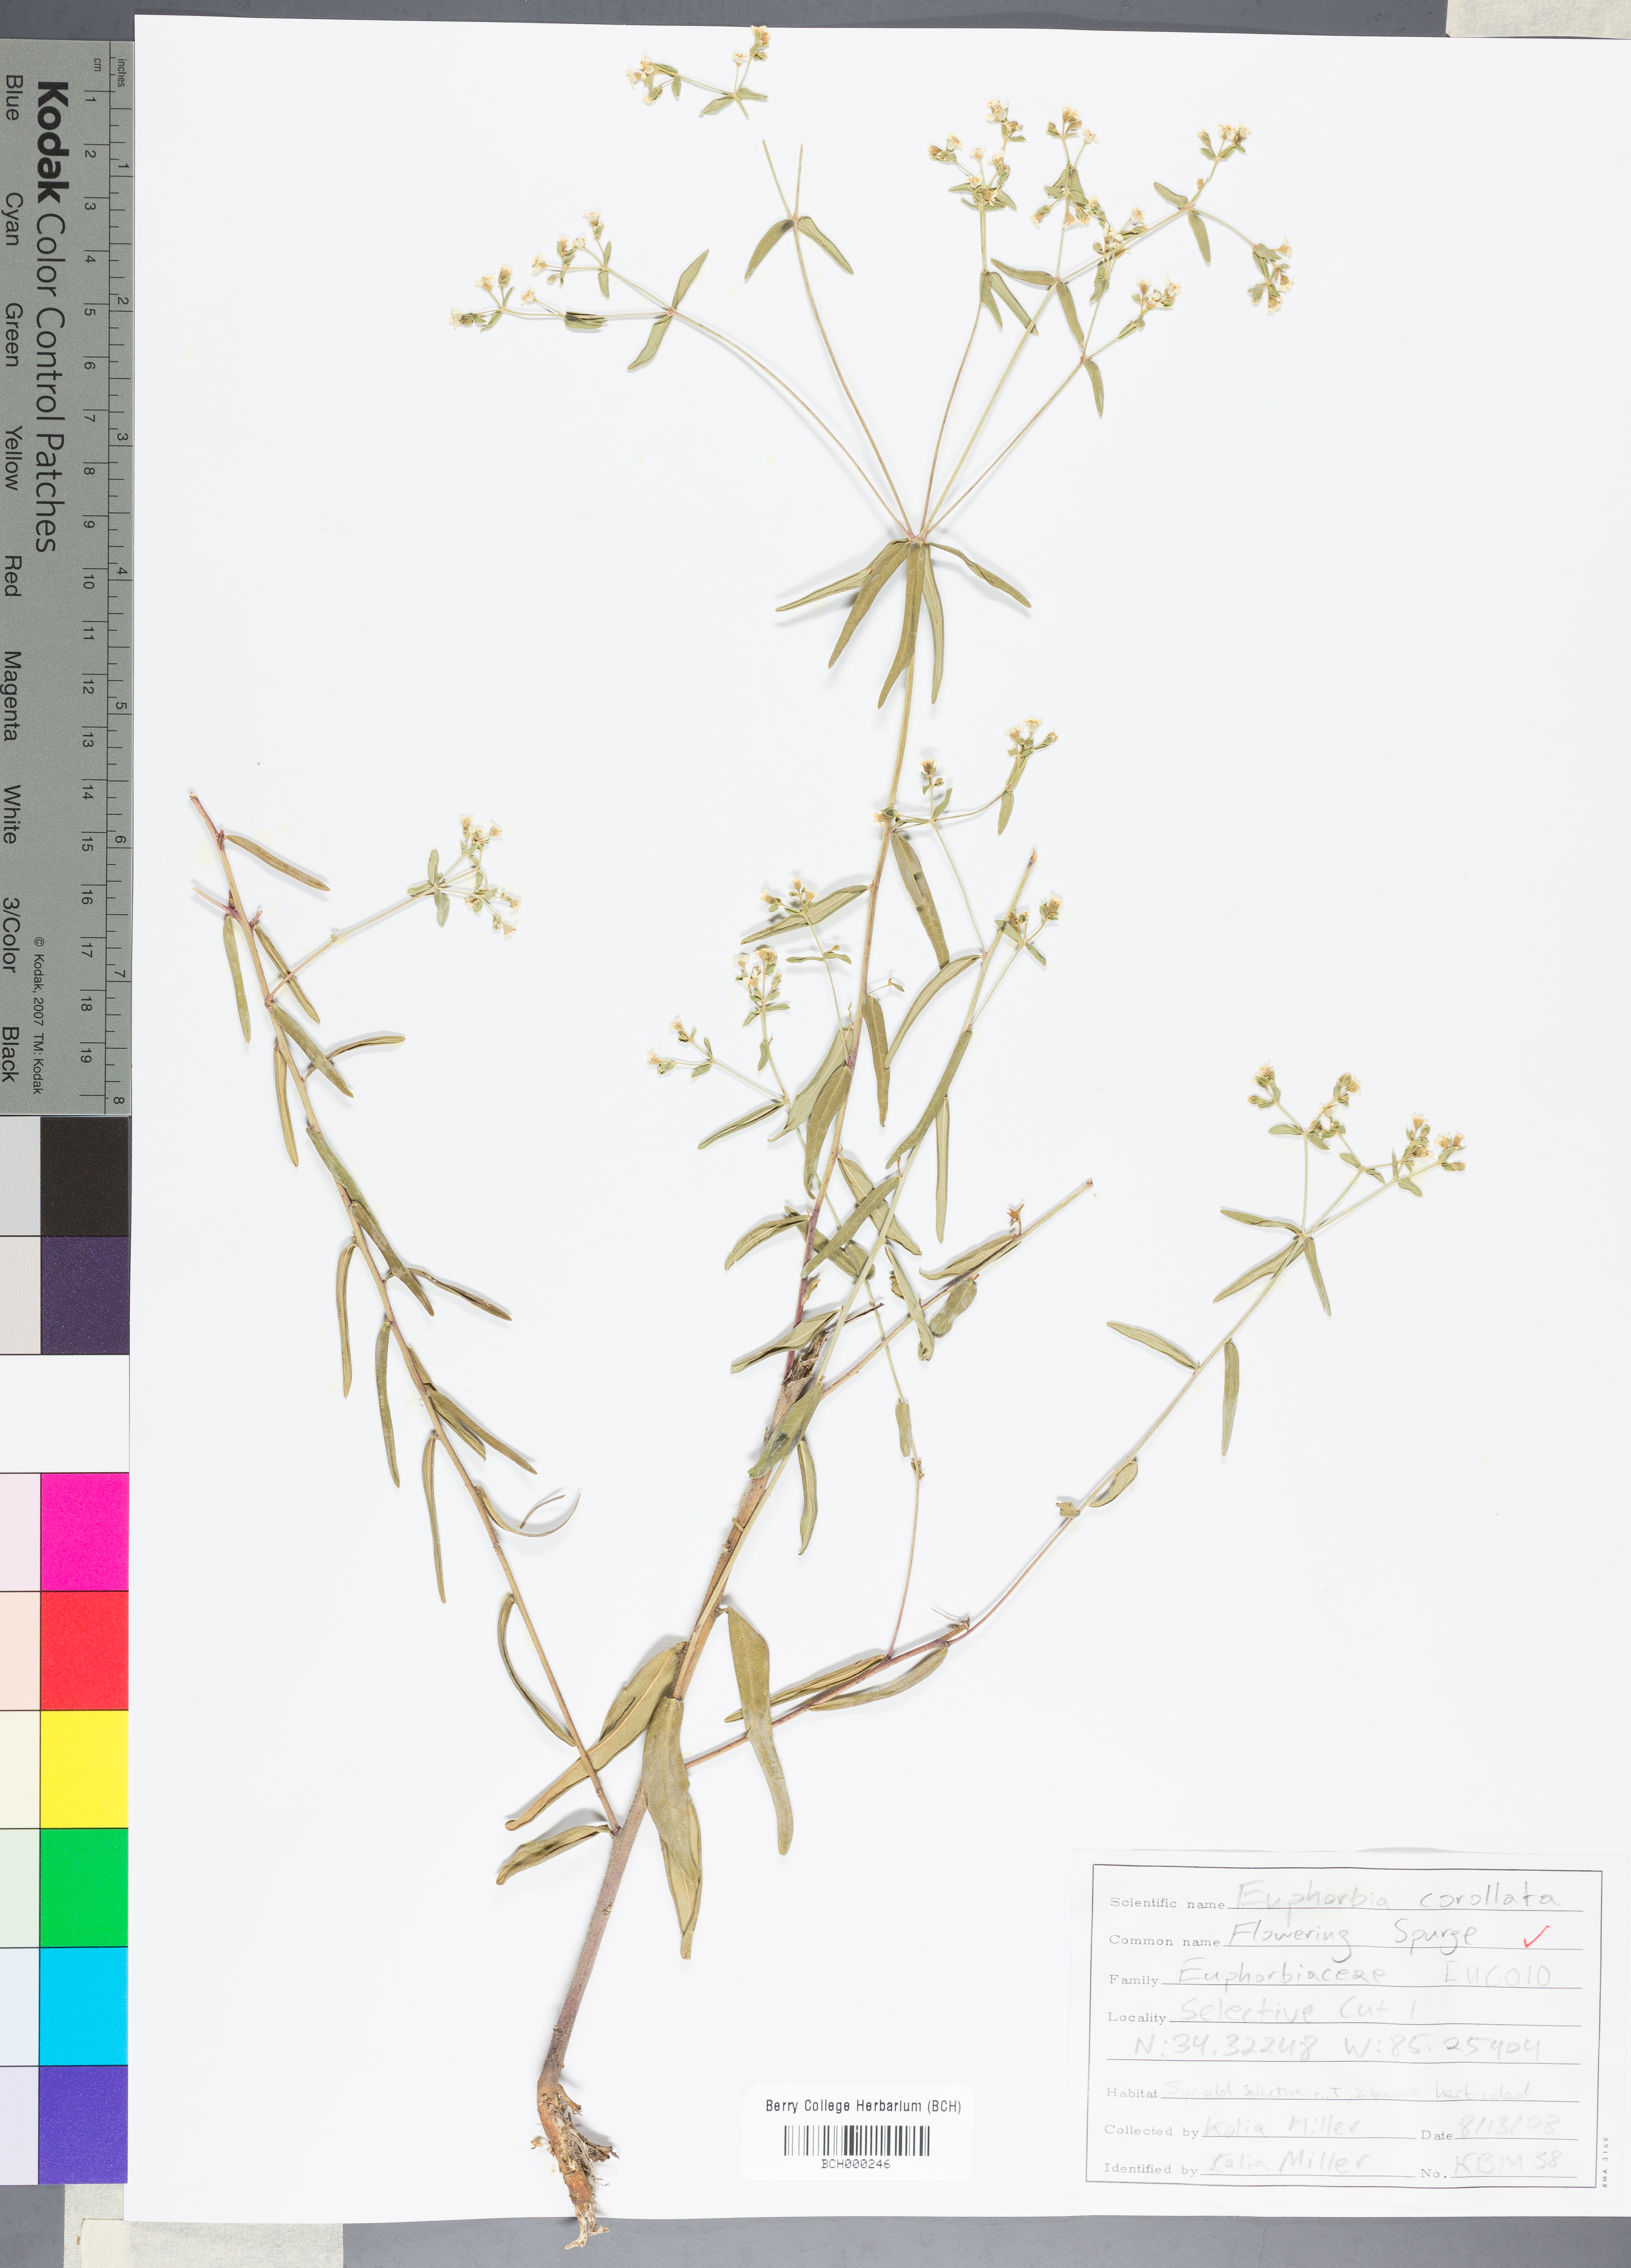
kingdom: Plantae
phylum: Tracheophyta
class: Magnoliopsida
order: Malpighiales
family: Euphorbiaceae
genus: Euphorbia
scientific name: Euphorbia corollata
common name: Flowering spurge
